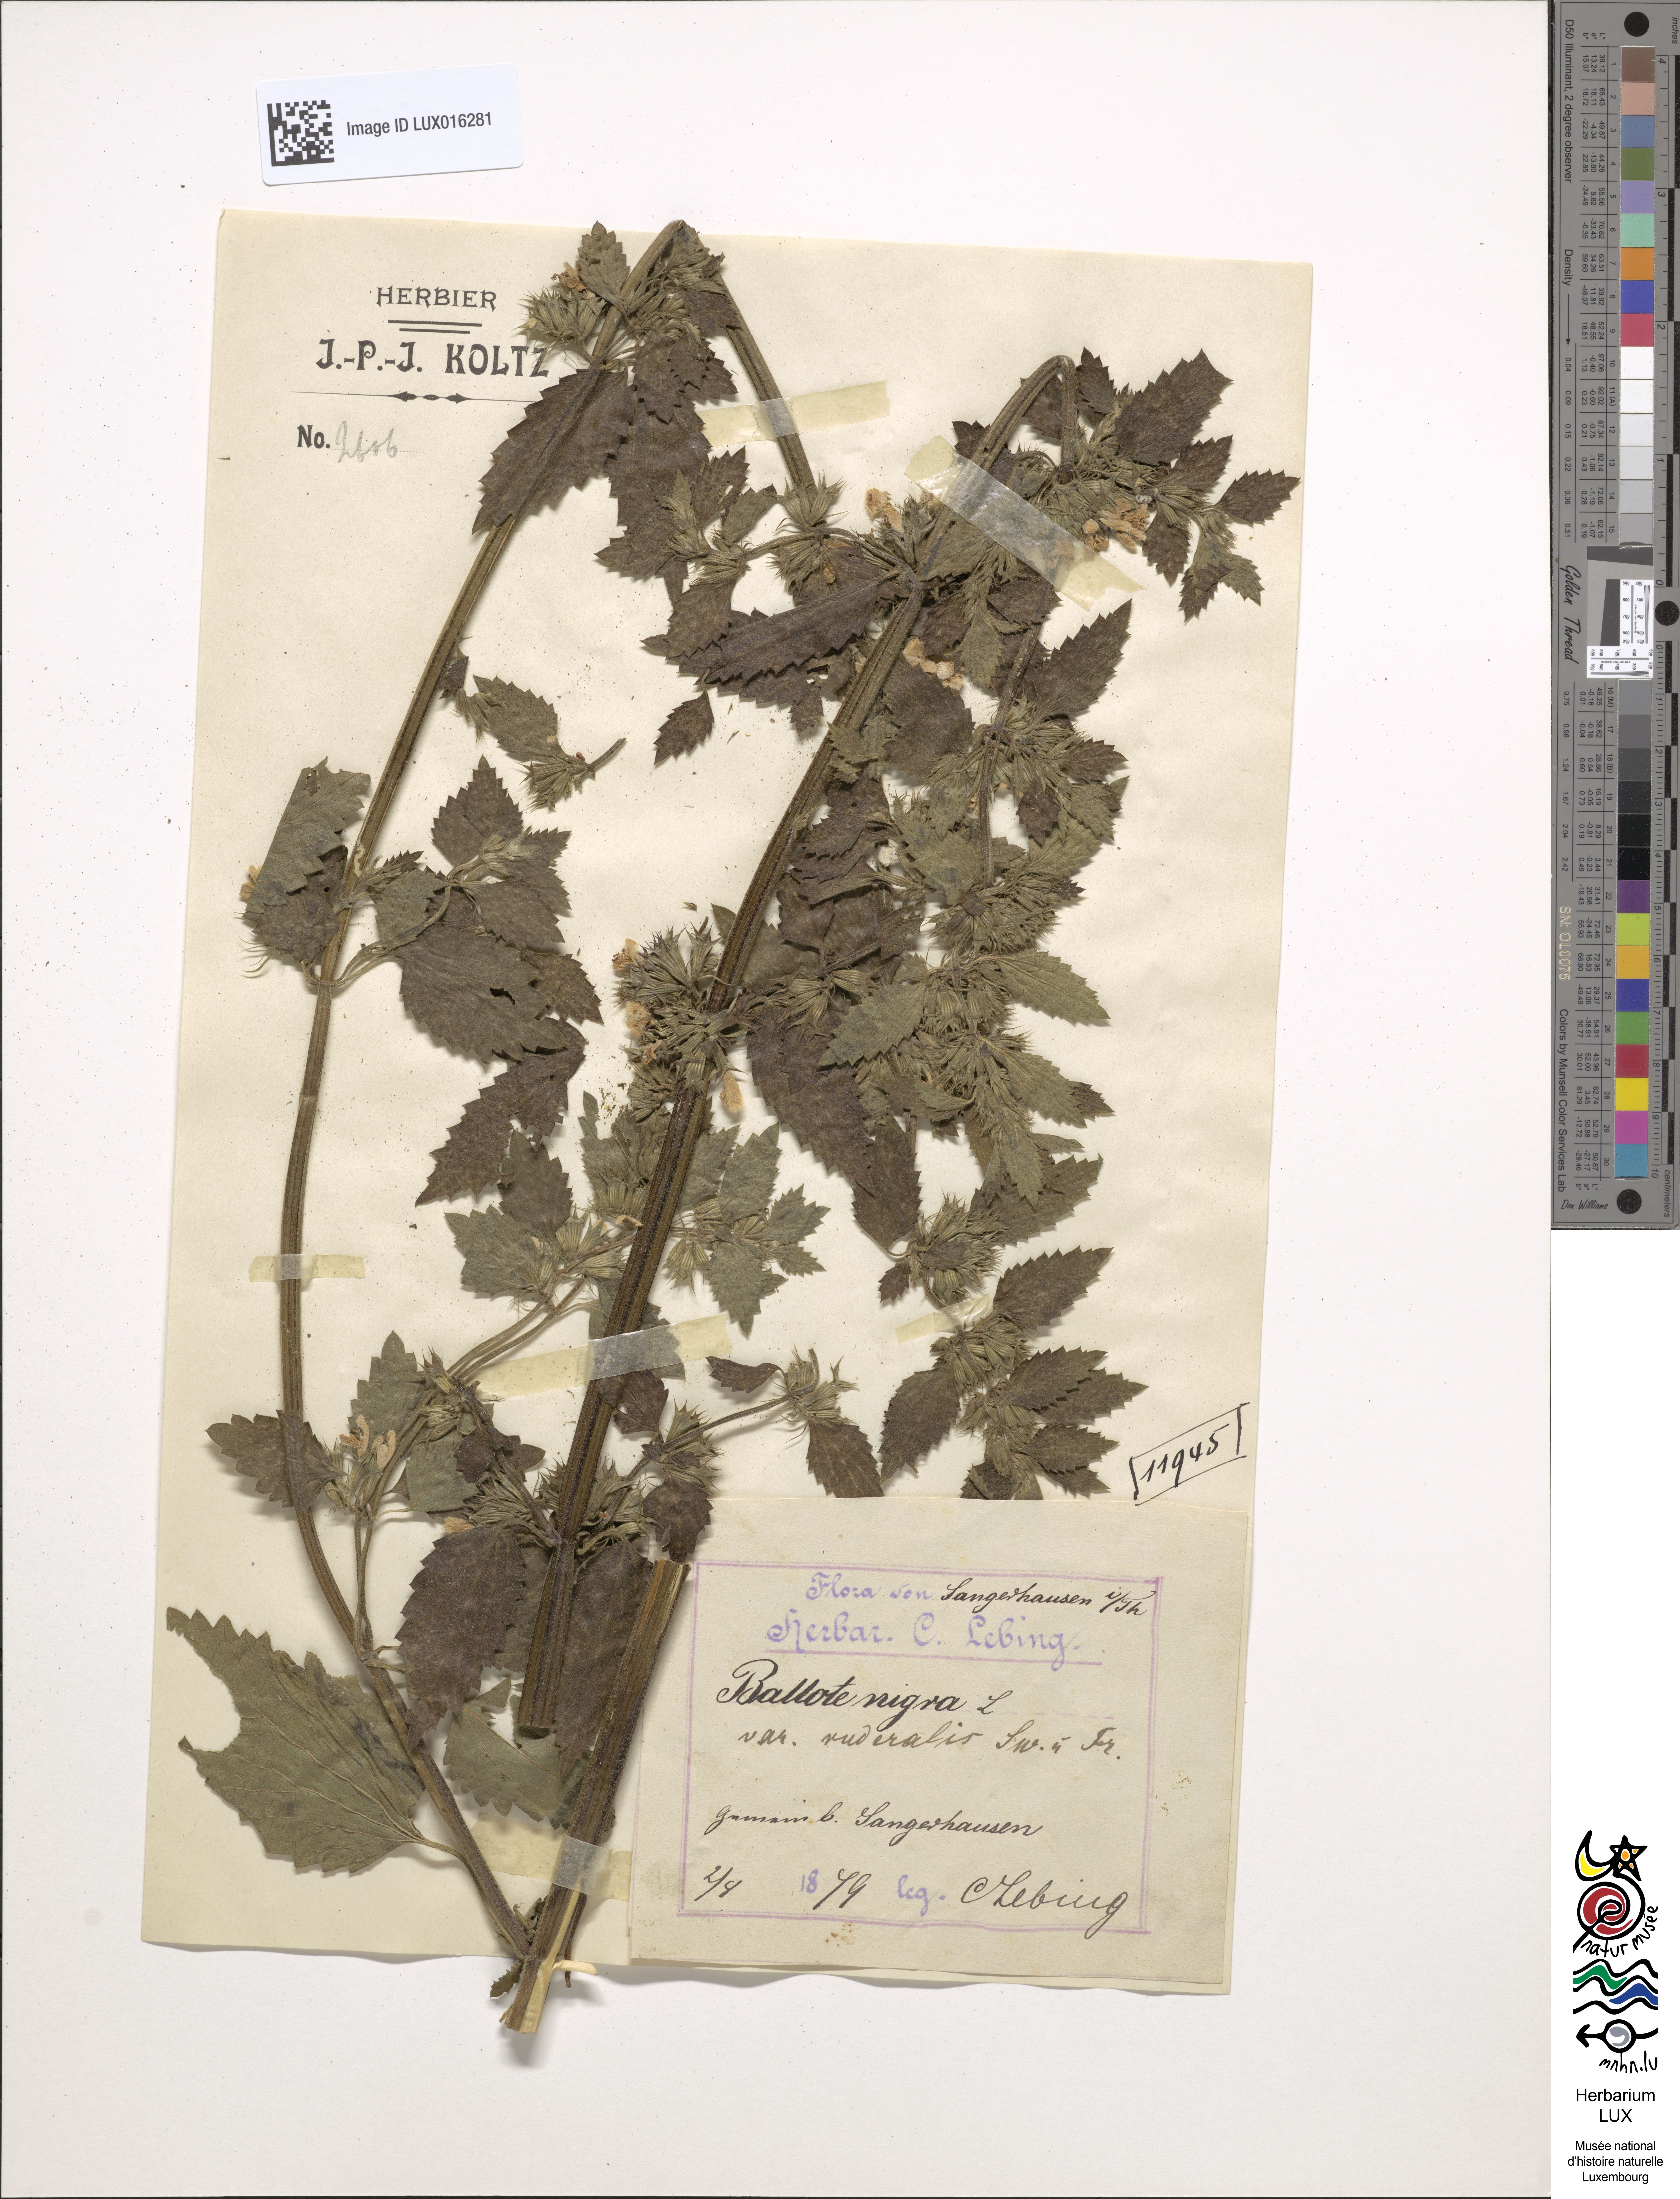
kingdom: Plantae
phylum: Tracheophyta
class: Magnoliopsida
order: Lamiales
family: Lamiaceae
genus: Ballota
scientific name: Ballota nigra
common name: Black horehound
